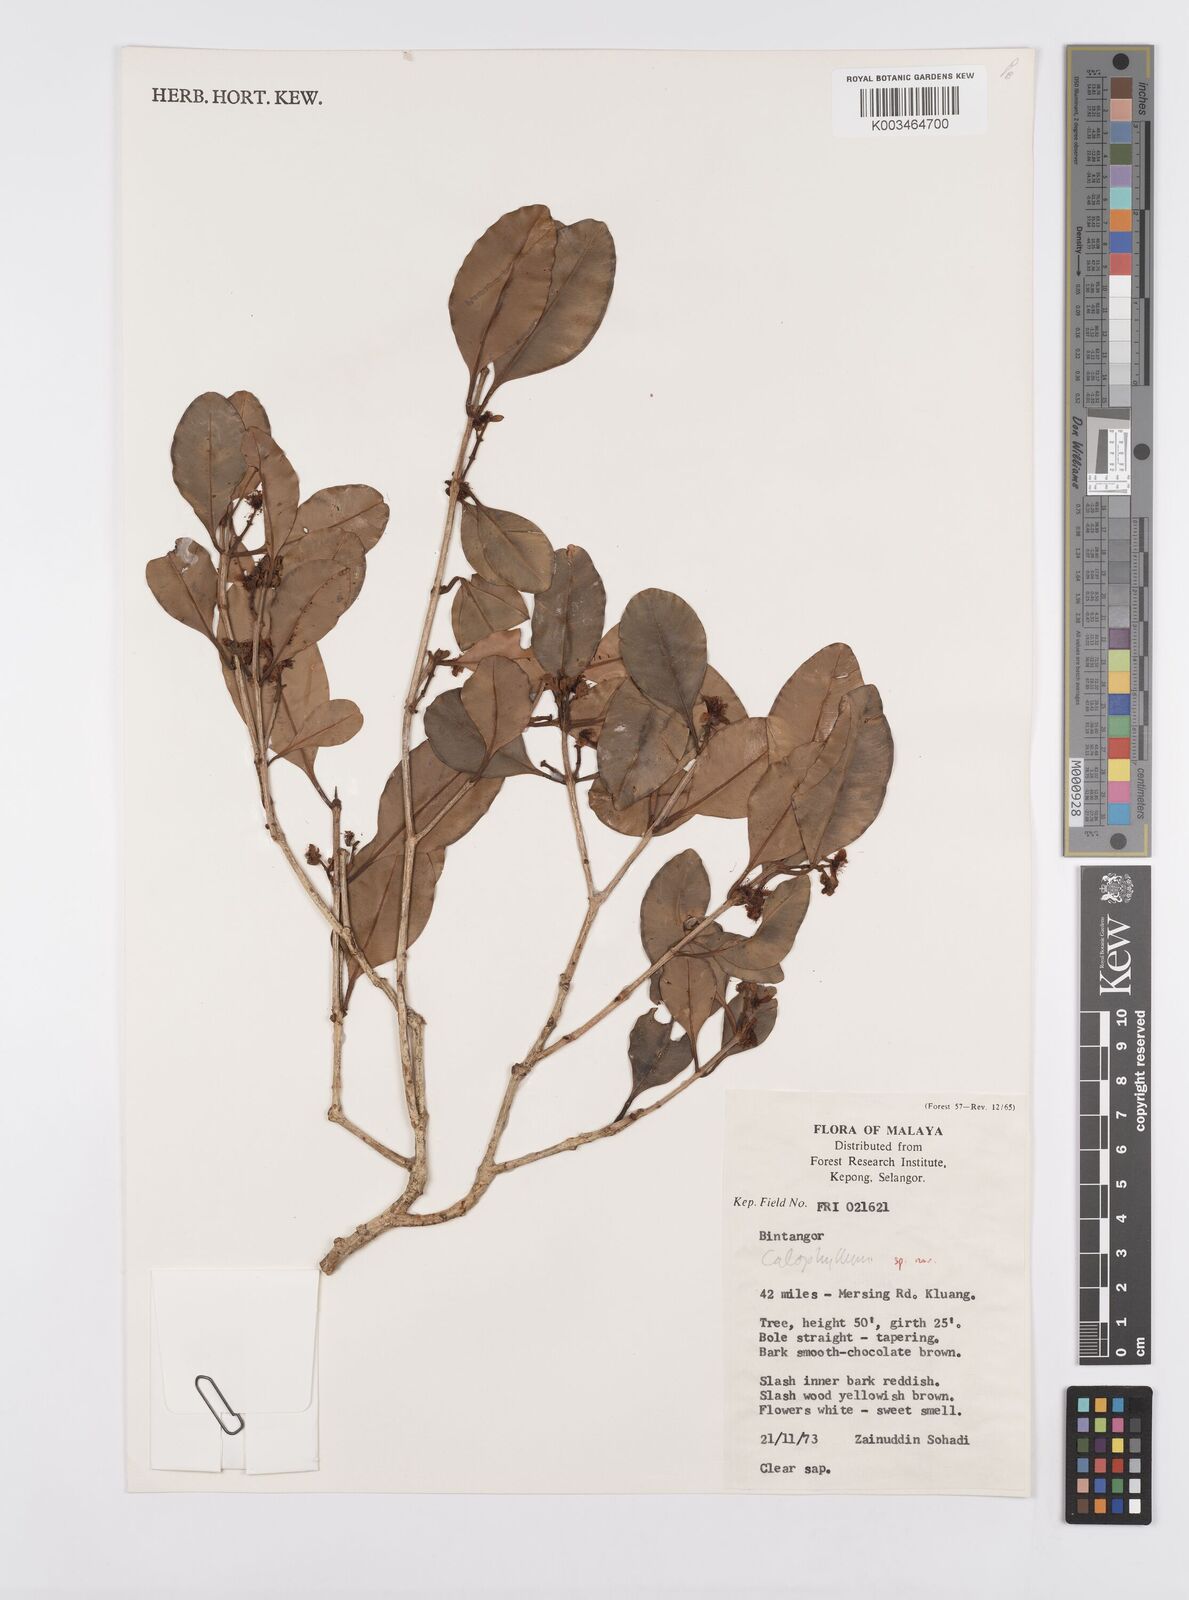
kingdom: Plantae
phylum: Tracheophyta
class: Magnoliopsida
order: Malpighiales
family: Calophyllaceae
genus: Calophyllum
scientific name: Calophyllum
